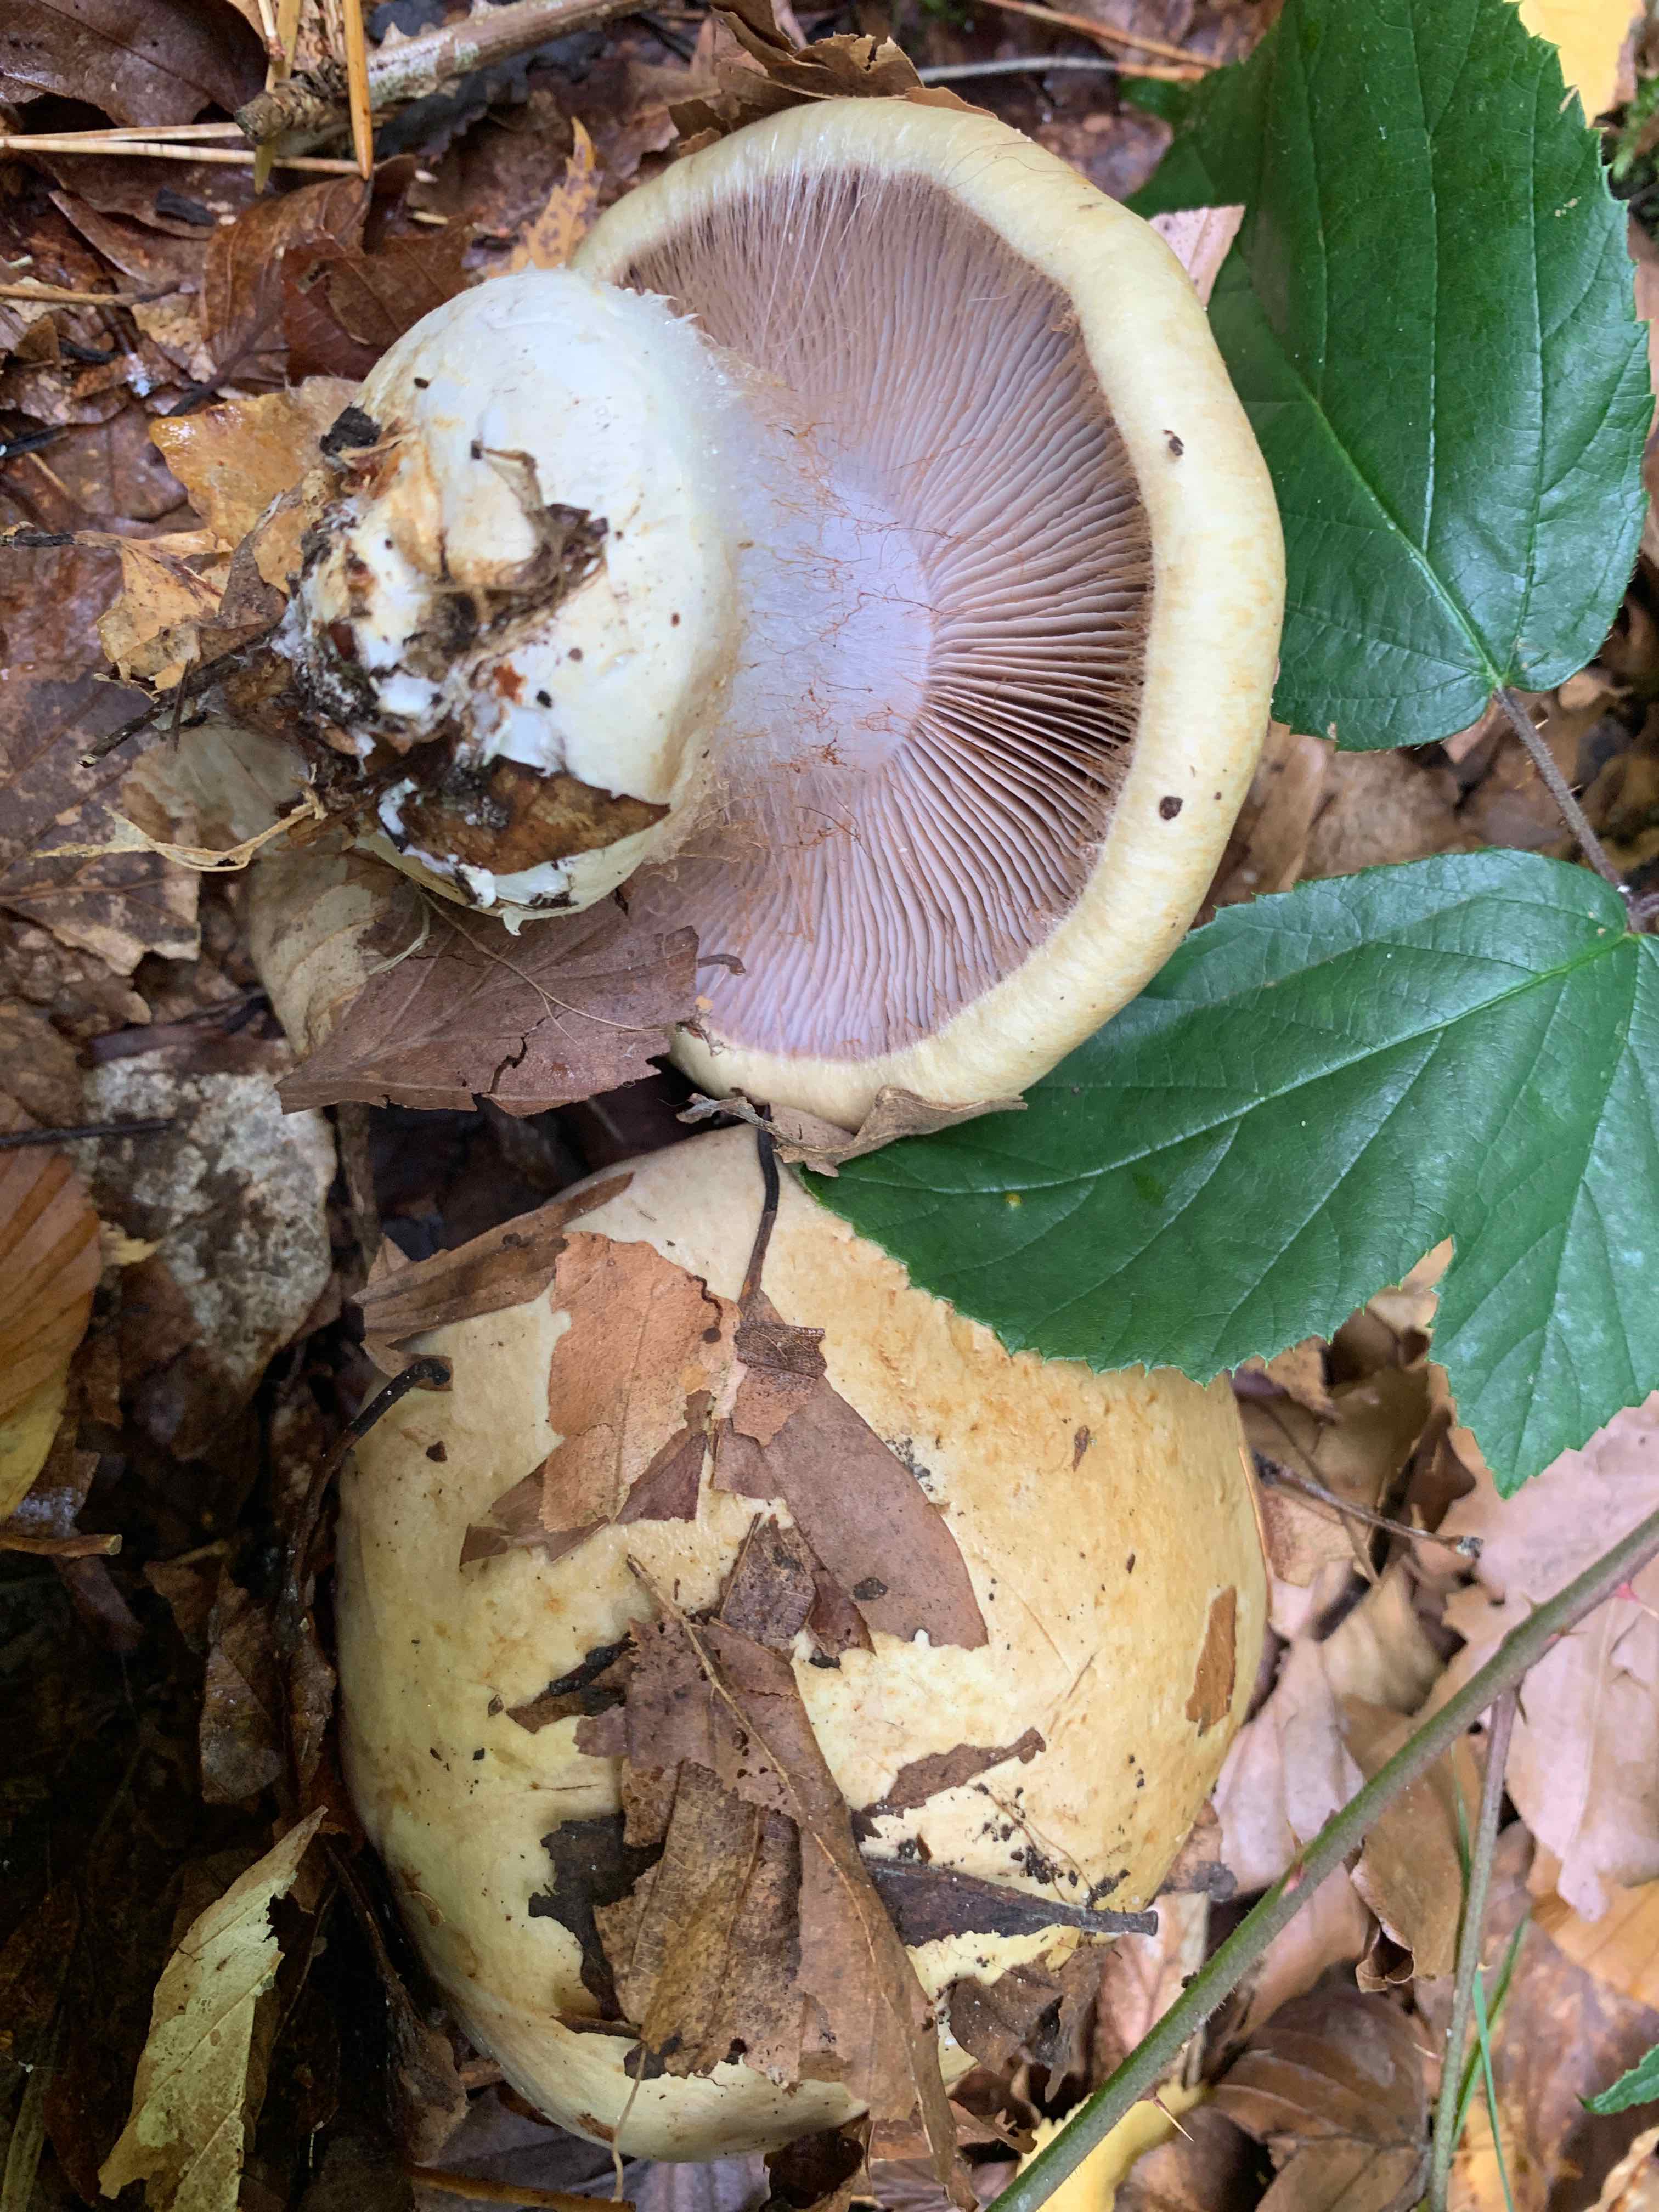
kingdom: Fungi
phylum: Basidiomycota
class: Agaricomycetes
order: Agaricales
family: Cortinariaceae
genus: Cortinarius
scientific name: Cortinarius anserinus
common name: bøge-slørhat
